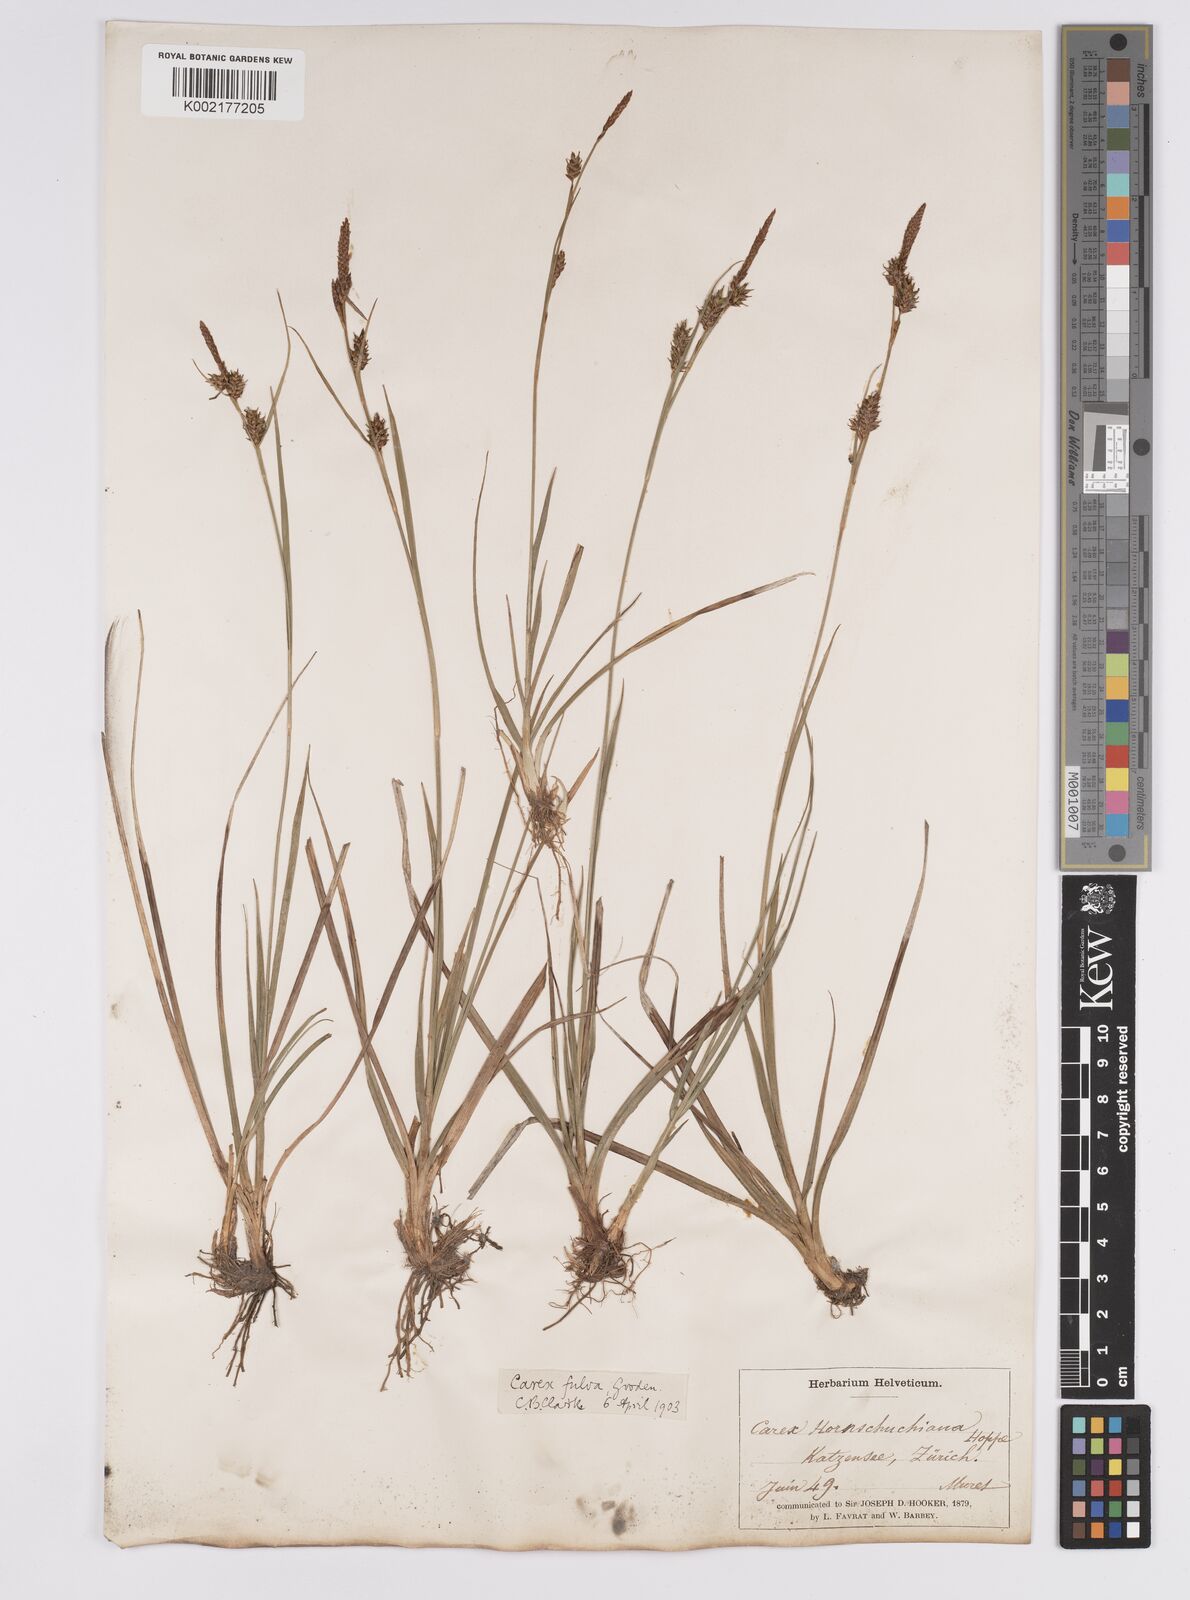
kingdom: Plantae
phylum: Tracheophyta
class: Liliopsida
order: Poales
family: Cyperaceae
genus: Carex
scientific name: Carex hostiana
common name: Tawny sedge
